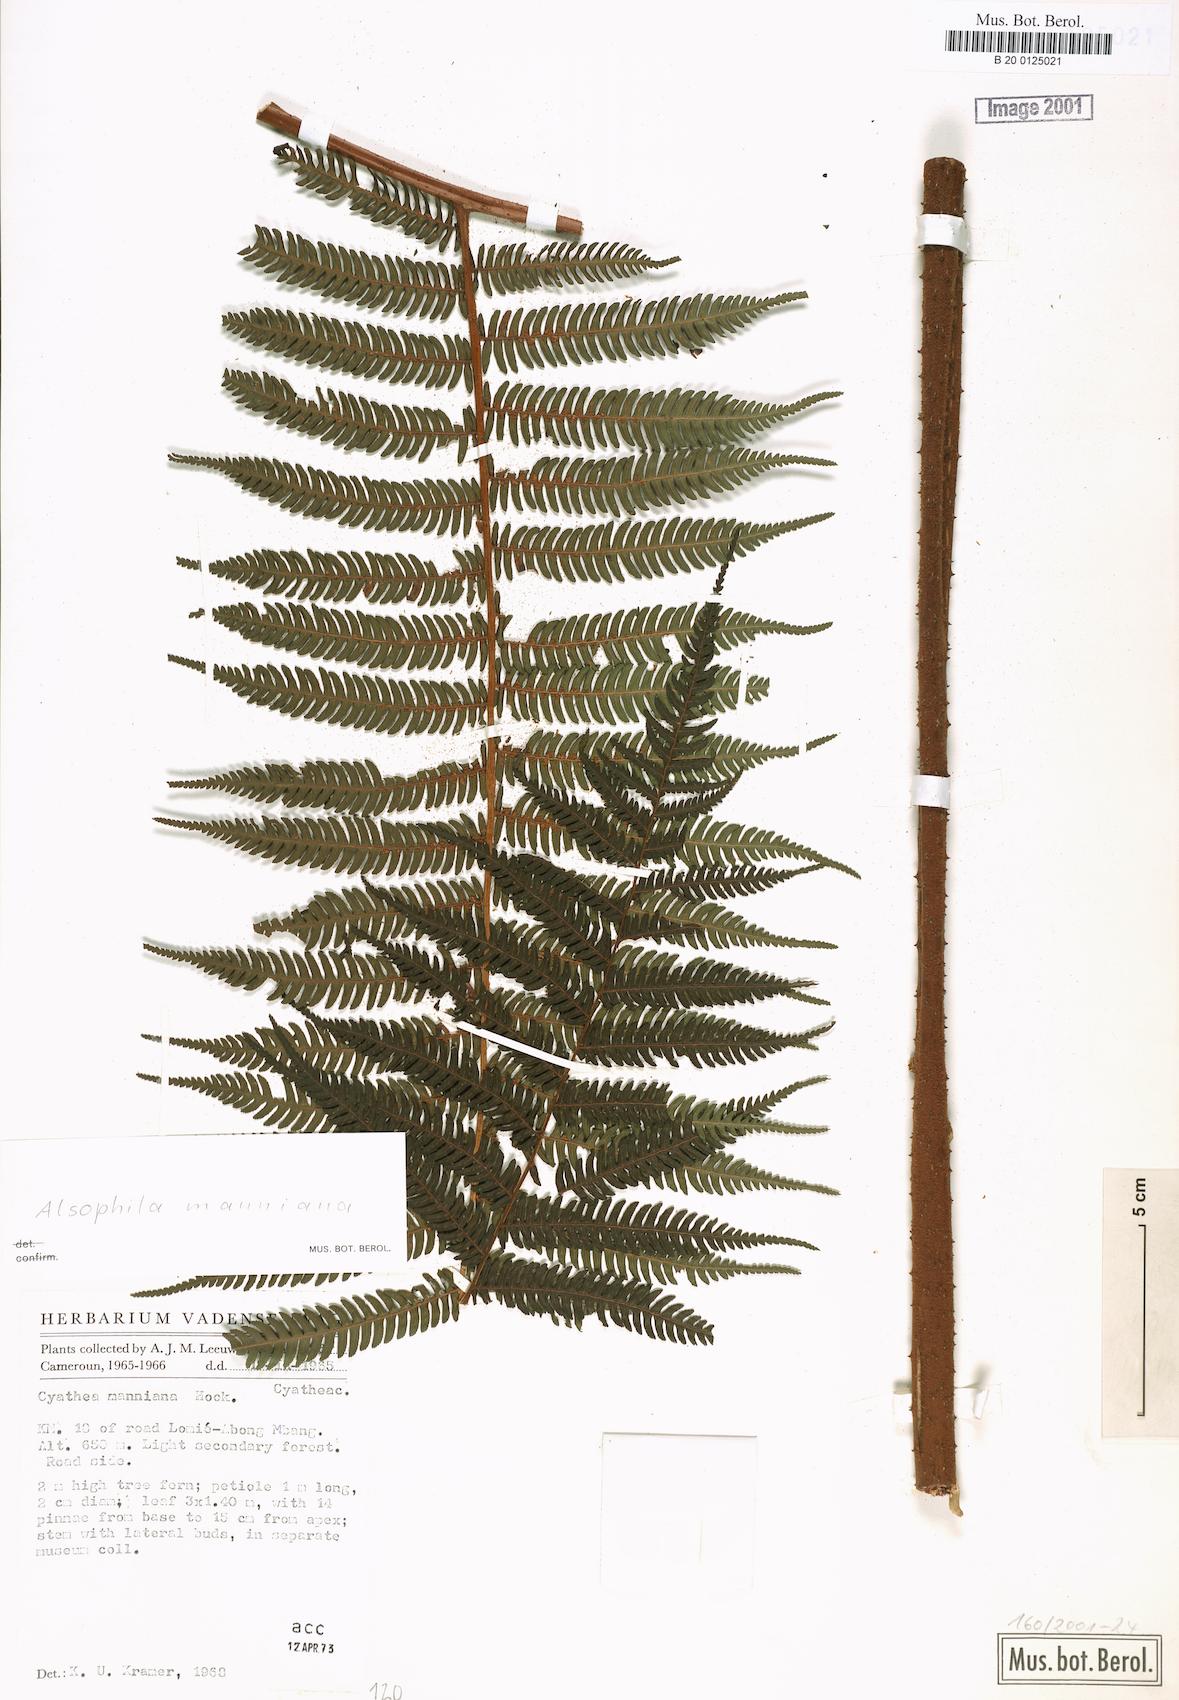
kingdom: Plantae
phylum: Tracheophyta
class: Polypodiopsida
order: Cyatheales
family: Cyatheaceae
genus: Alsophila
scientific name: Alsophila manniana
